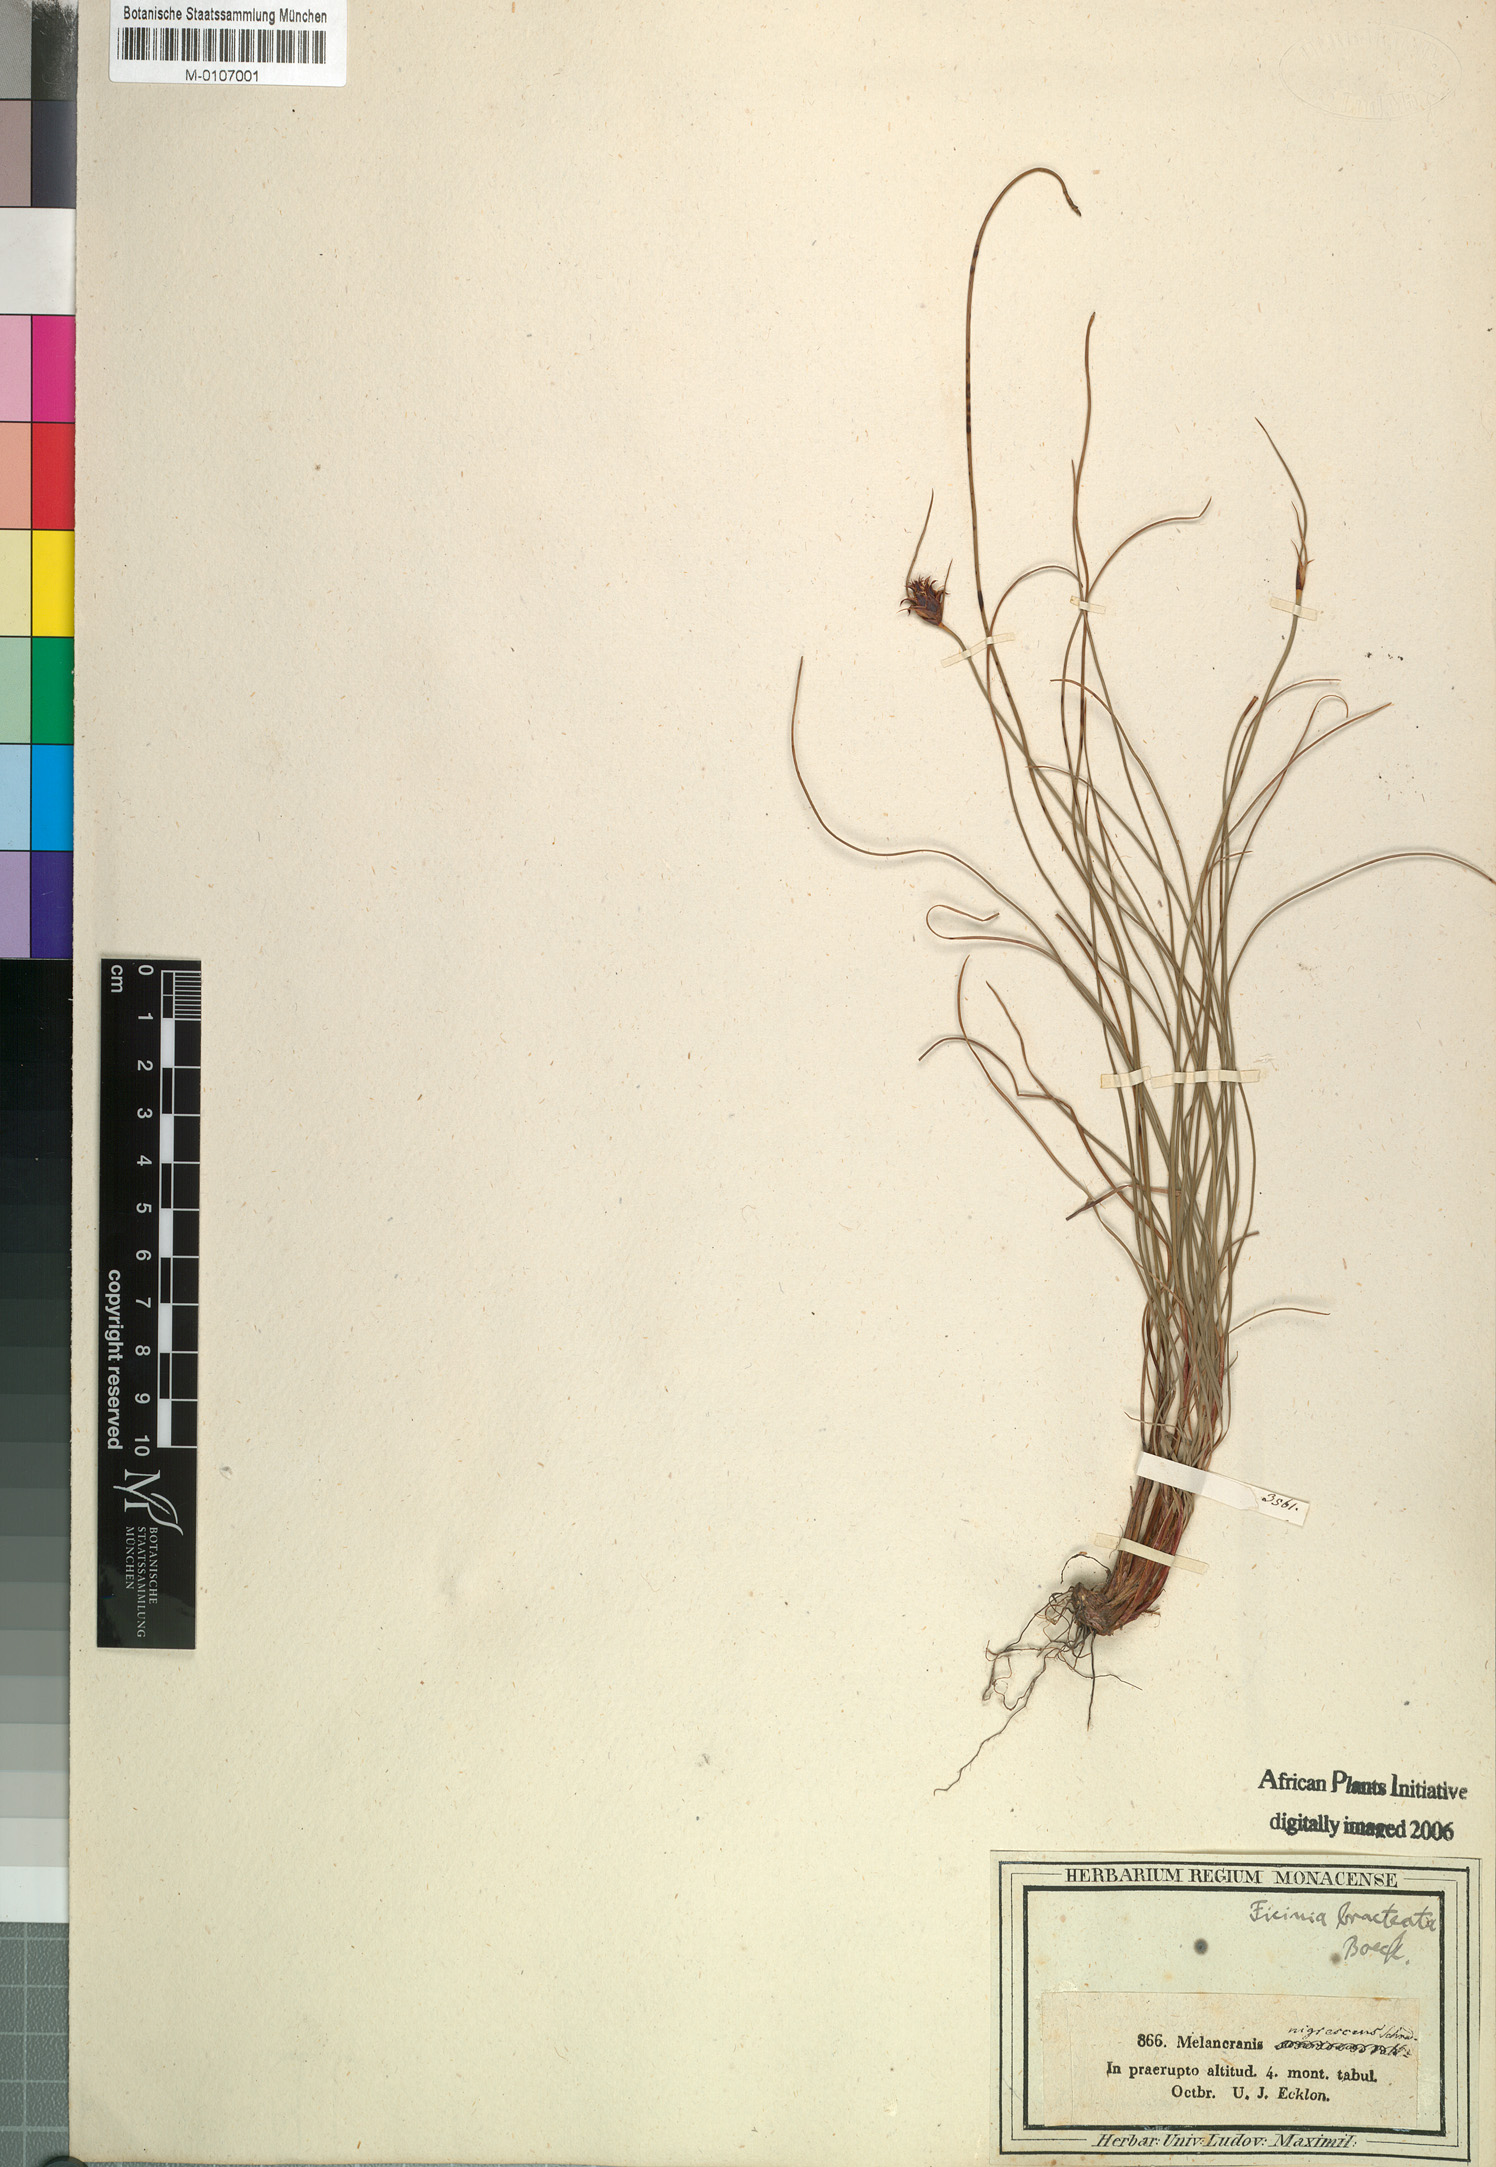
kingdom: Plantae
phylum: Tracheophyta
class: Liliopsida
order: Poales
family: Cyperaceae
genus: Ficinia
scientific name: Ficinia nigrescens
